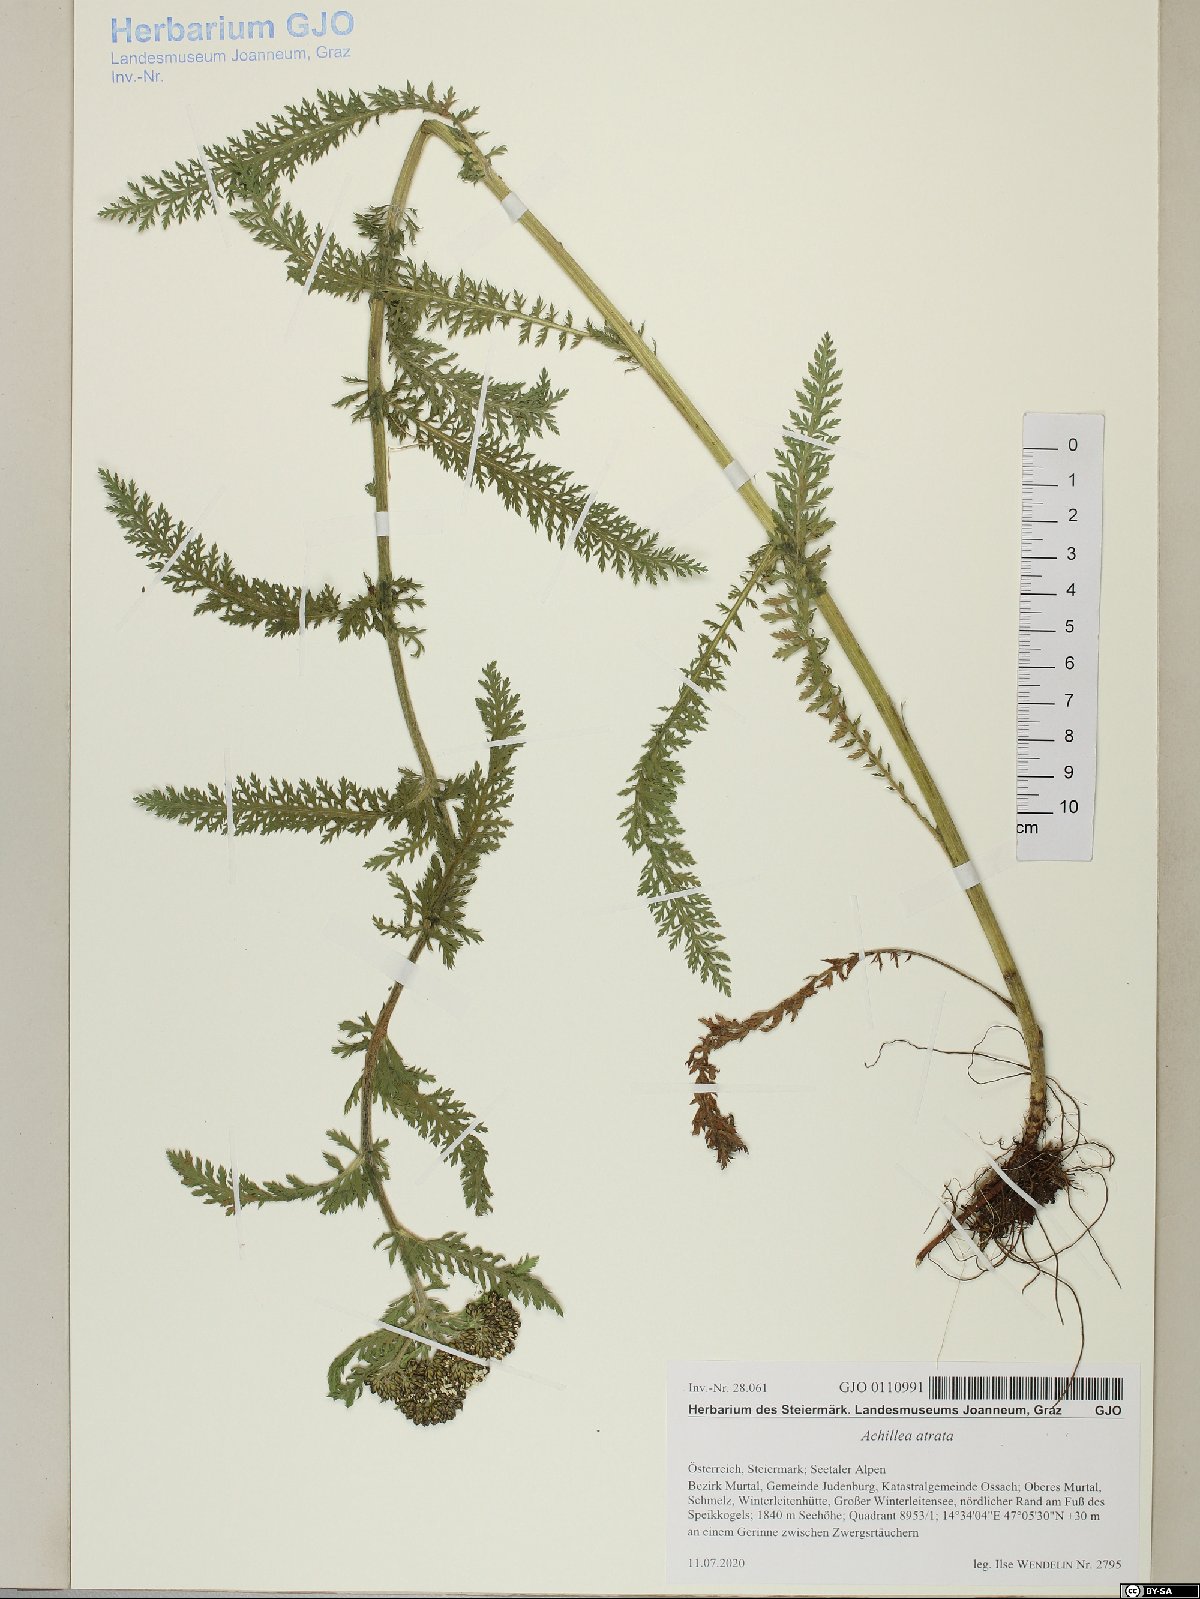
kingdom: Plantae
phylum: Tracheophyta
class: Magnoliopsida
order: Asterales
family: Asteraceae
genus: Achillea
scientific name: Achillea atrata
